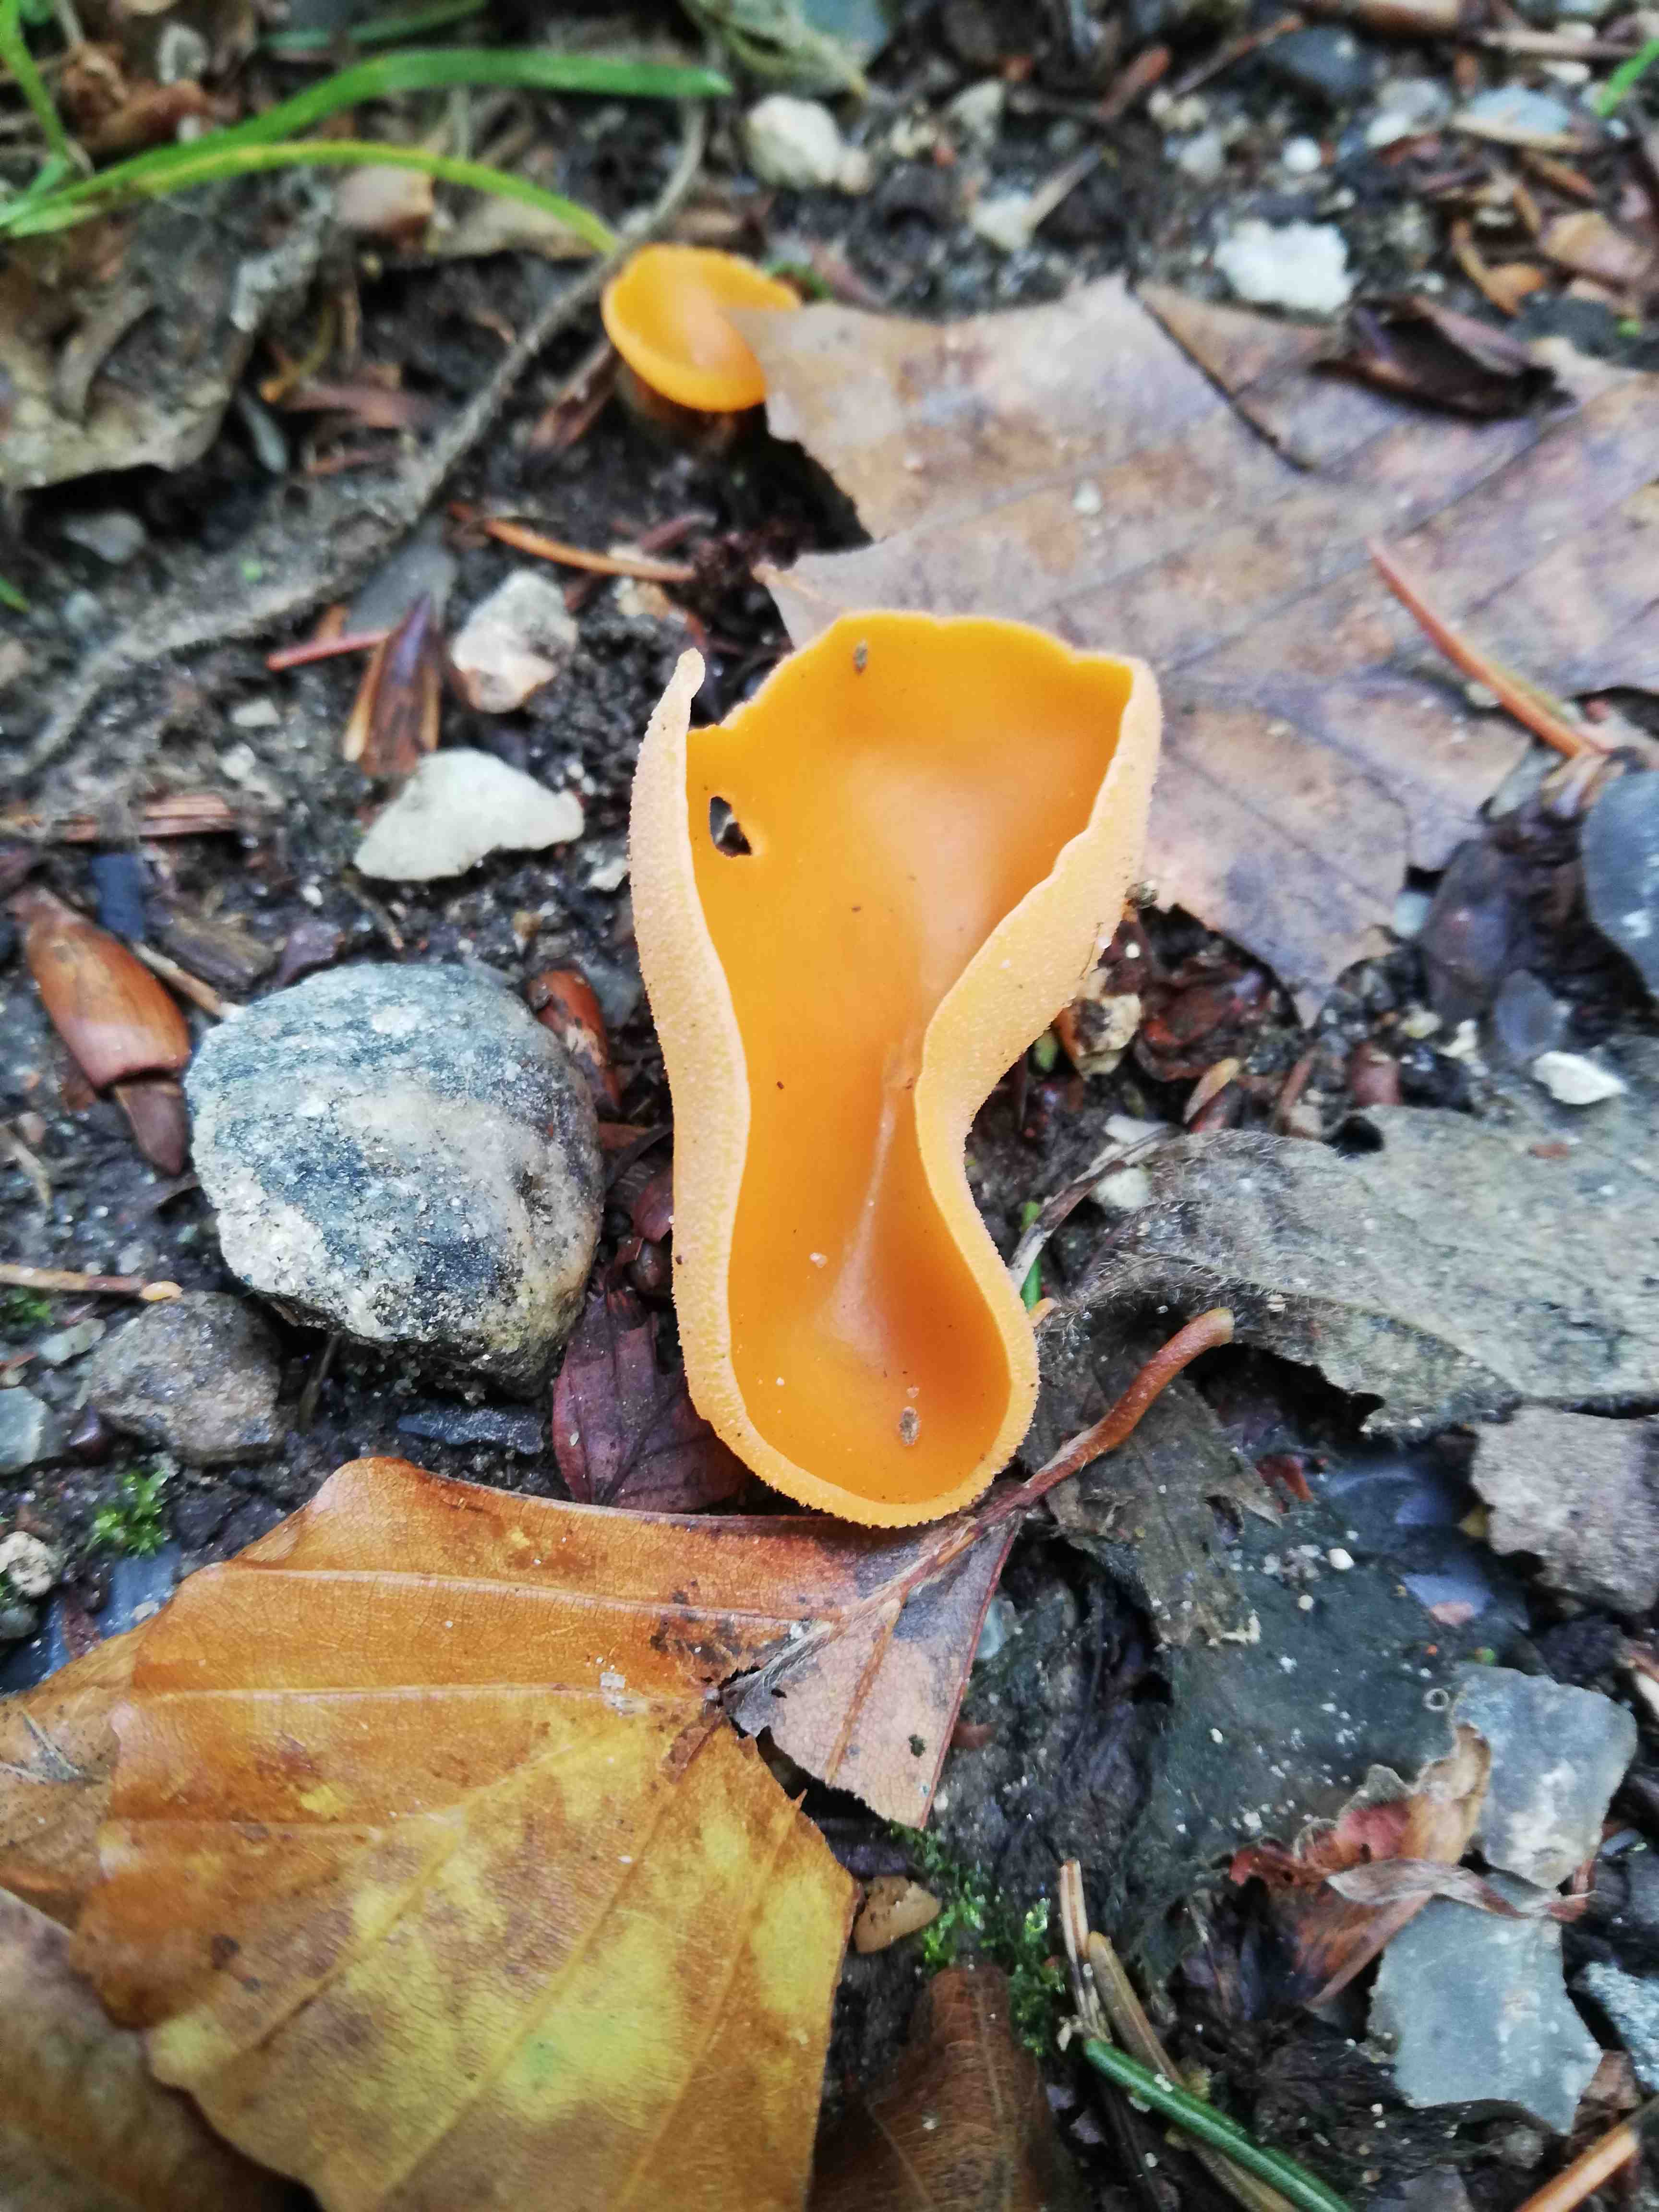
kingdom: Fungi
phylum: Ascomycota
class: Pezizomycetes
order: Pezizales
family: Pyronemataceae
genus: Aleuria
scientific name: Aleuria aurantia
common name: almindelig orangebæger
